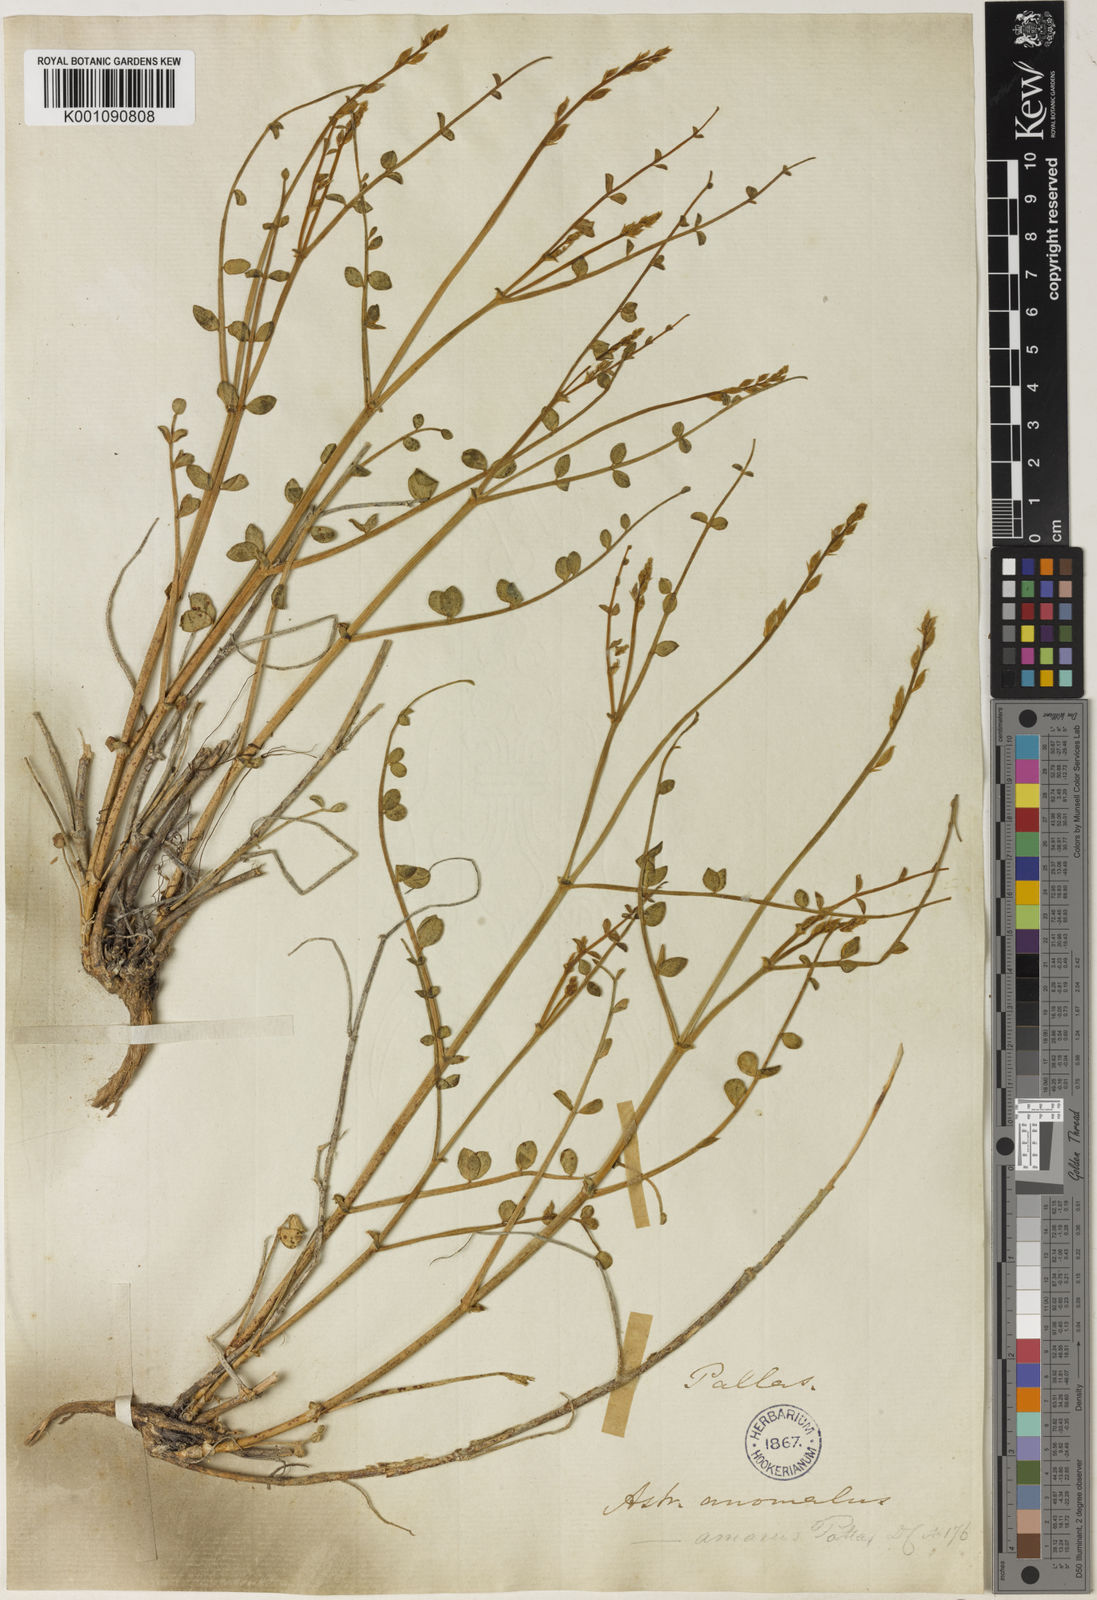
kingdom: Plantae
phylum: Tracheophyta
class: Magnoliopsida
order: Fabales
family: Fabaceae
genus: Astragalus
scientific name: Astragalus
